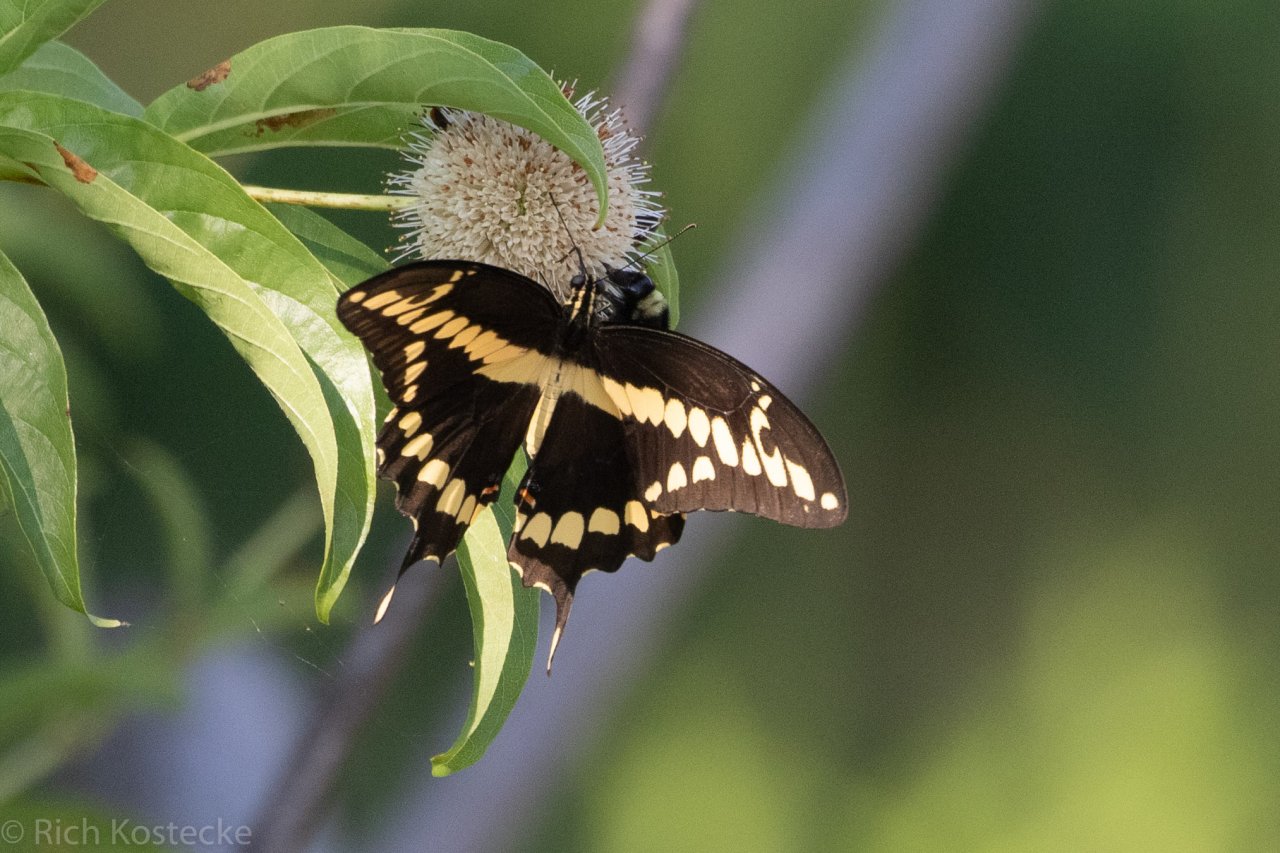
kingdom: Animalia
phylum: Arthropoda
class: Insecta
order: Lepidoptera
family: Papilionidae
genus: Papilio
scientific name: Papilio rumiko
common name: Western Giant Swallowtail
